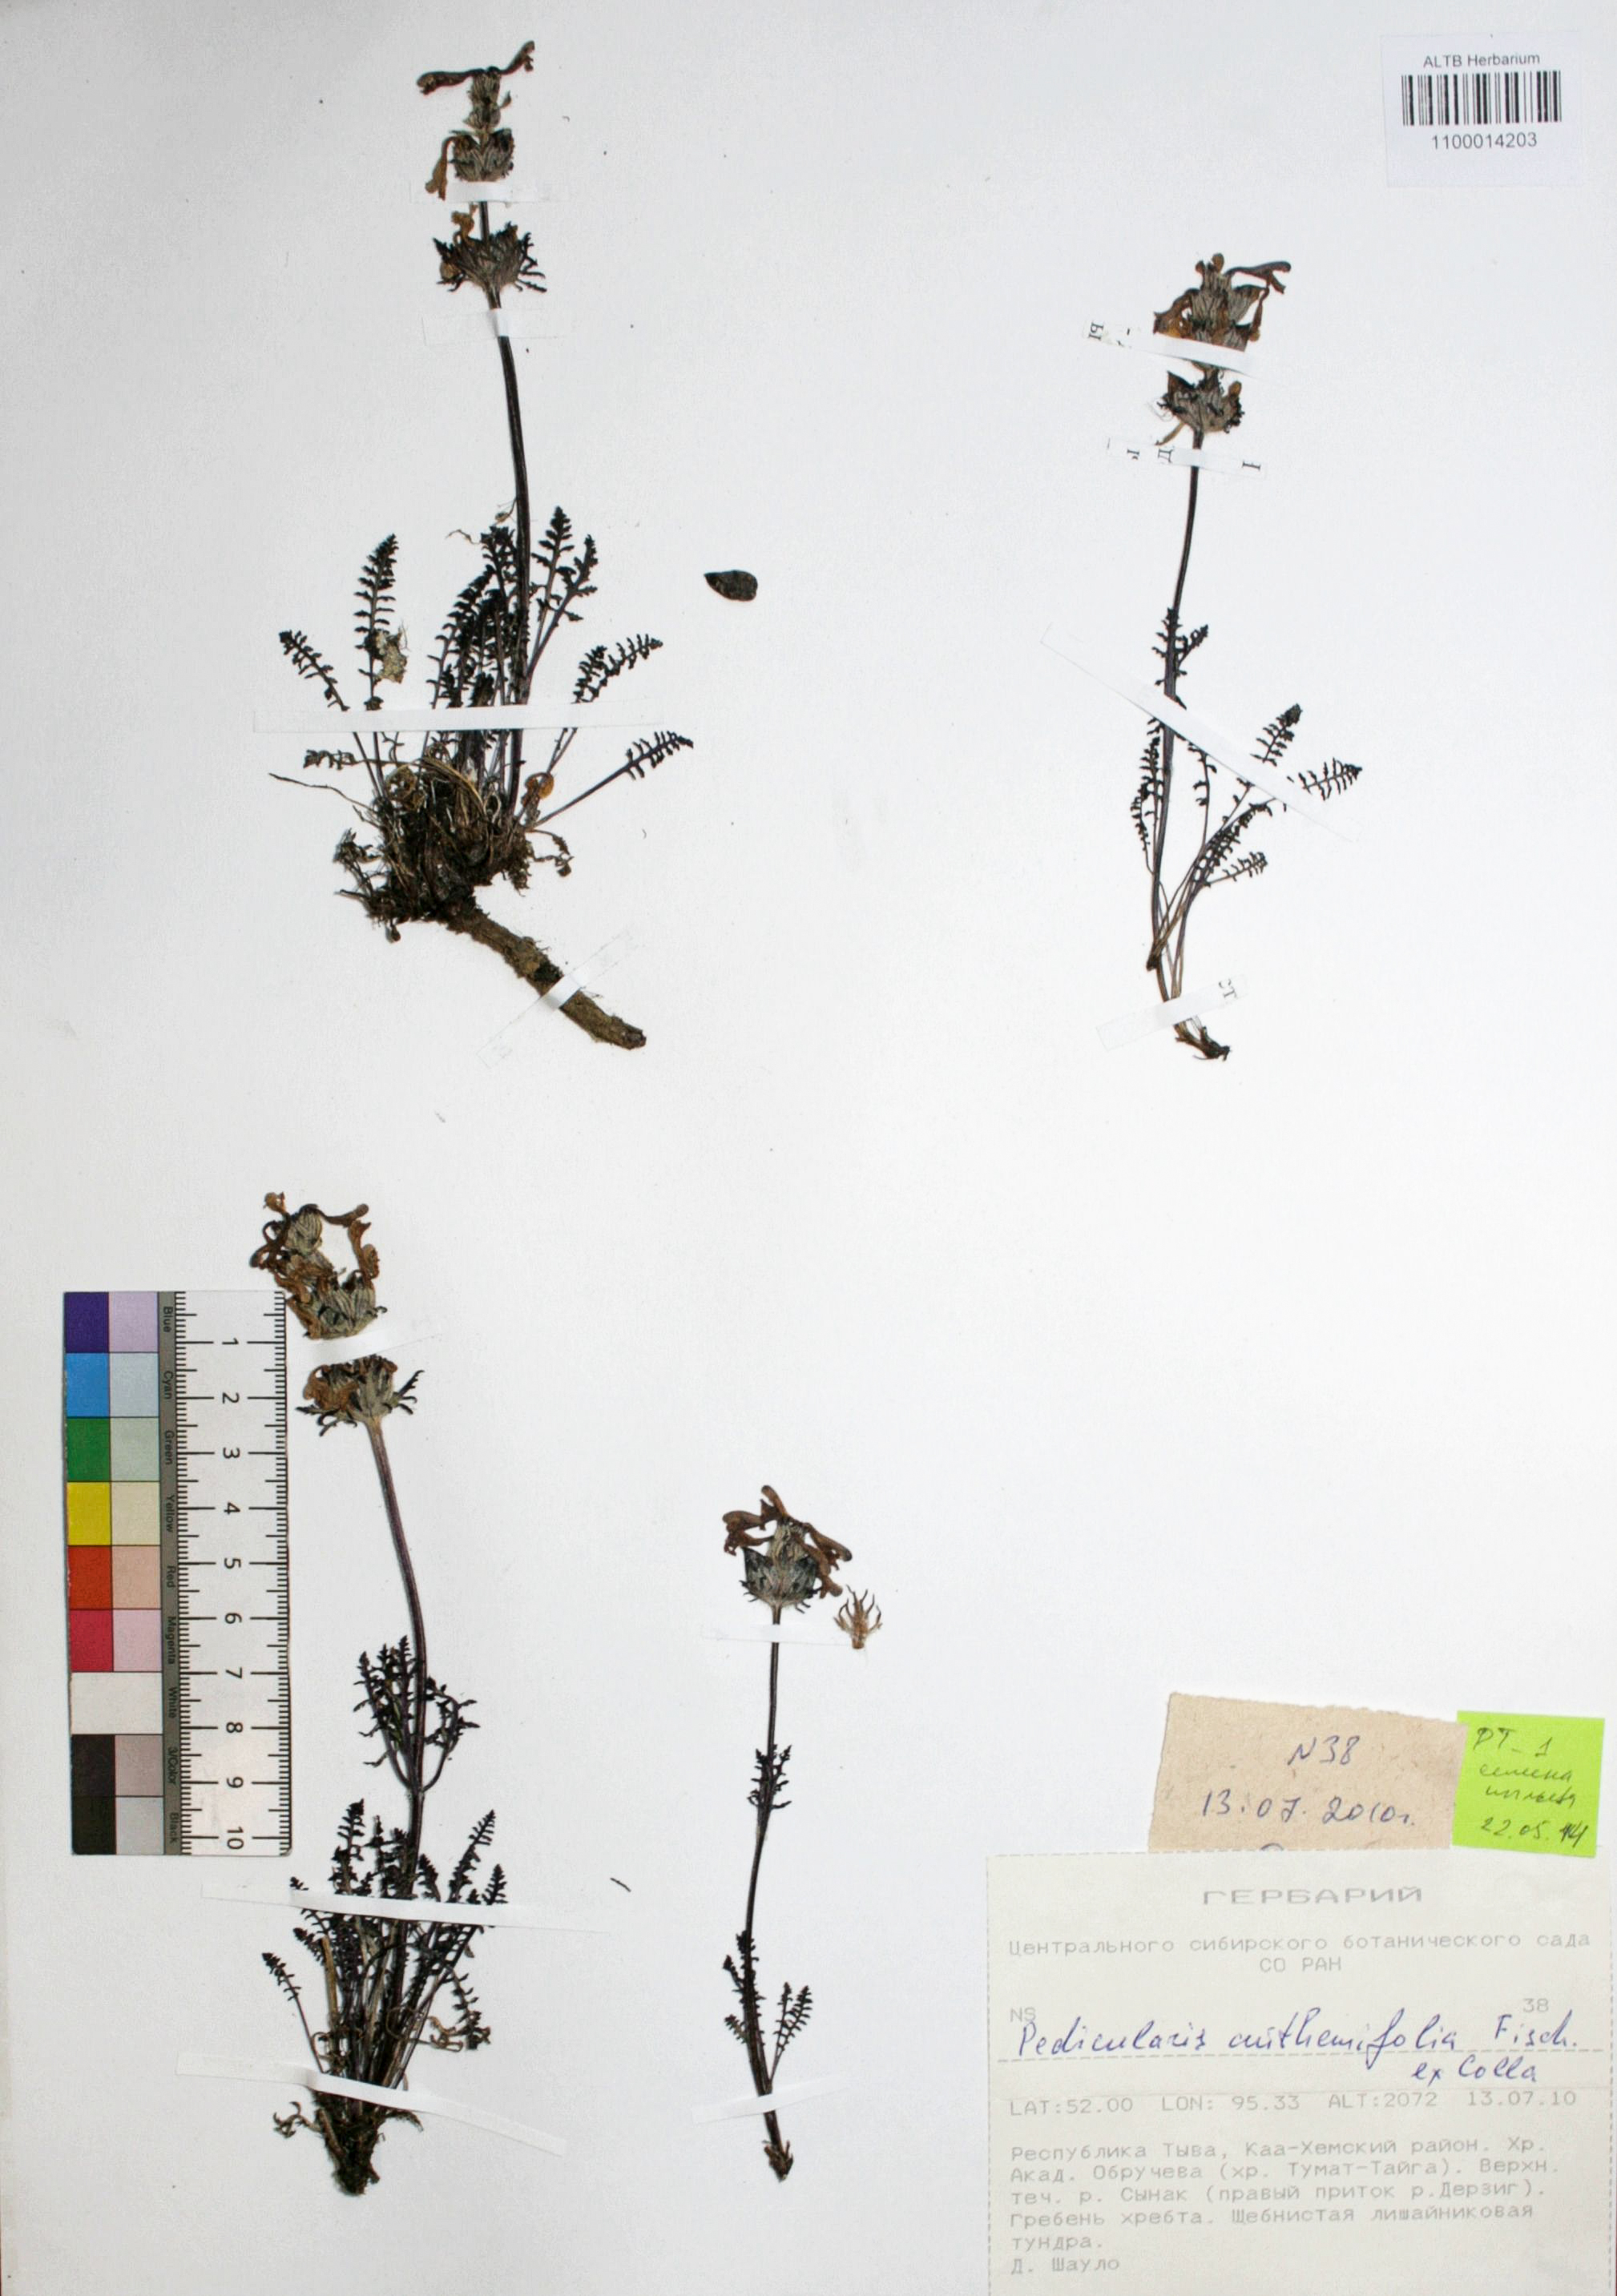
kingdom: Plantae
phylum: Tracheophyta
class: Magnoliopsida
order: Lamiales
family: Orobanchaceae
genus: Pedicularis
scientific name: Pedicularis anthemifolia
